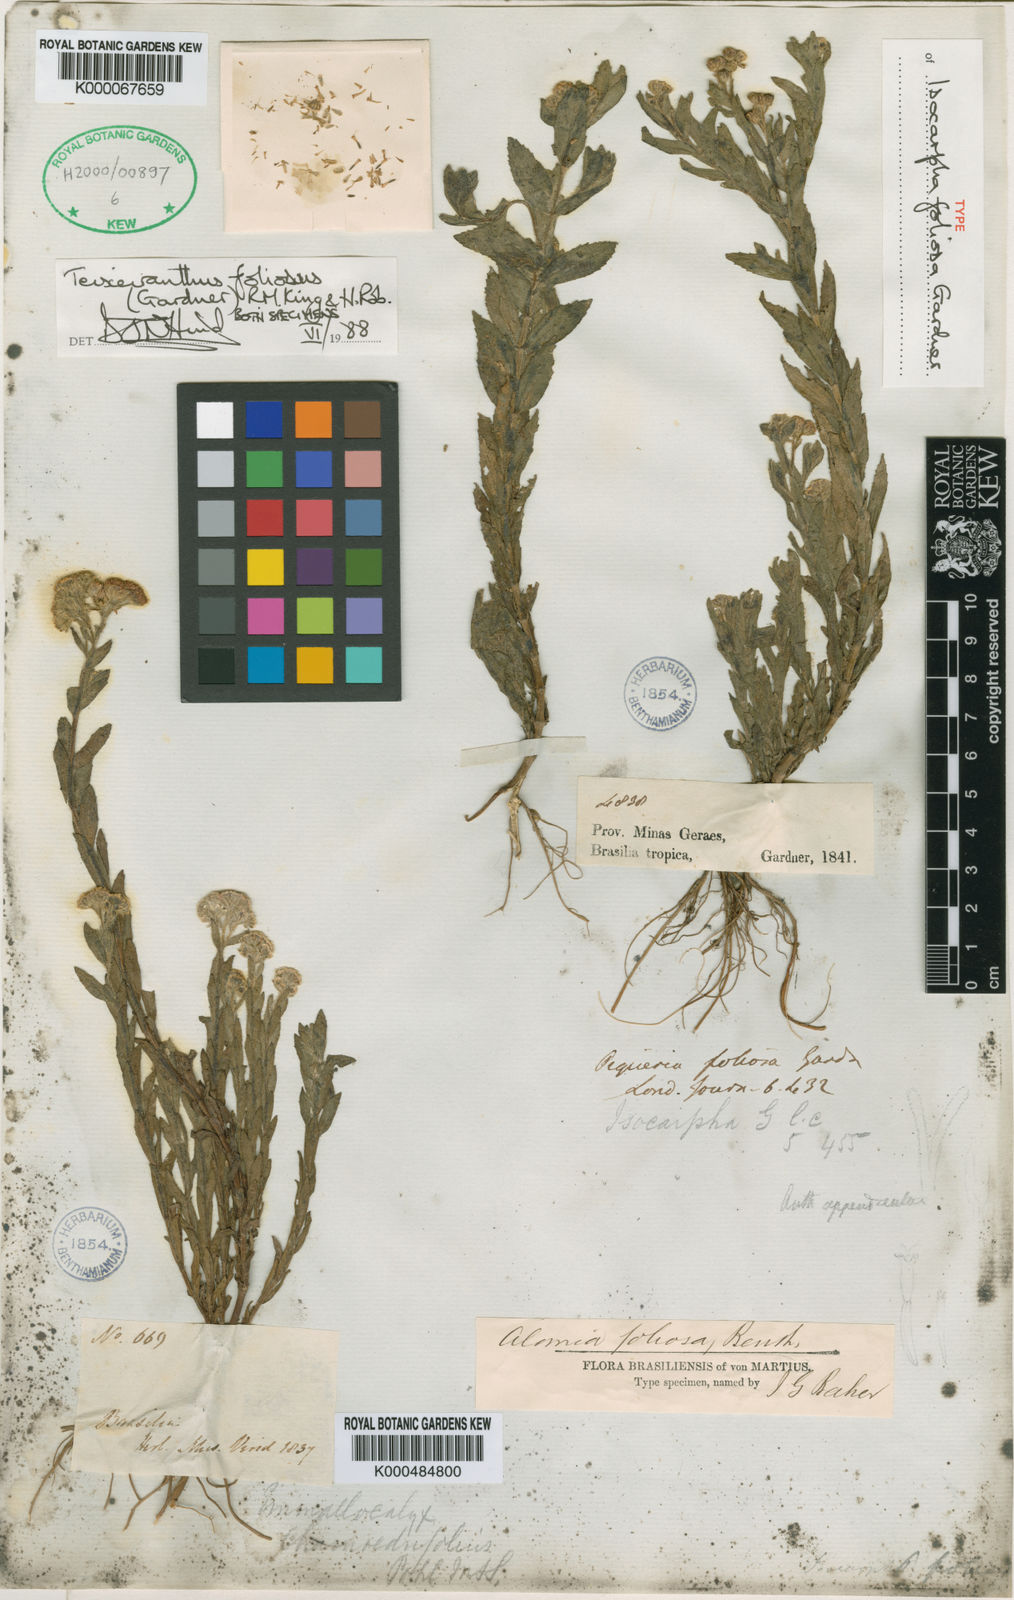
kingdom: Plantae
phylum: Tracheophyta
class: Magnoliopsida
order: Asterales
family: Asteraceae
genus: Teixeiranthus
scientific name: Teixeiranthus foliosus
